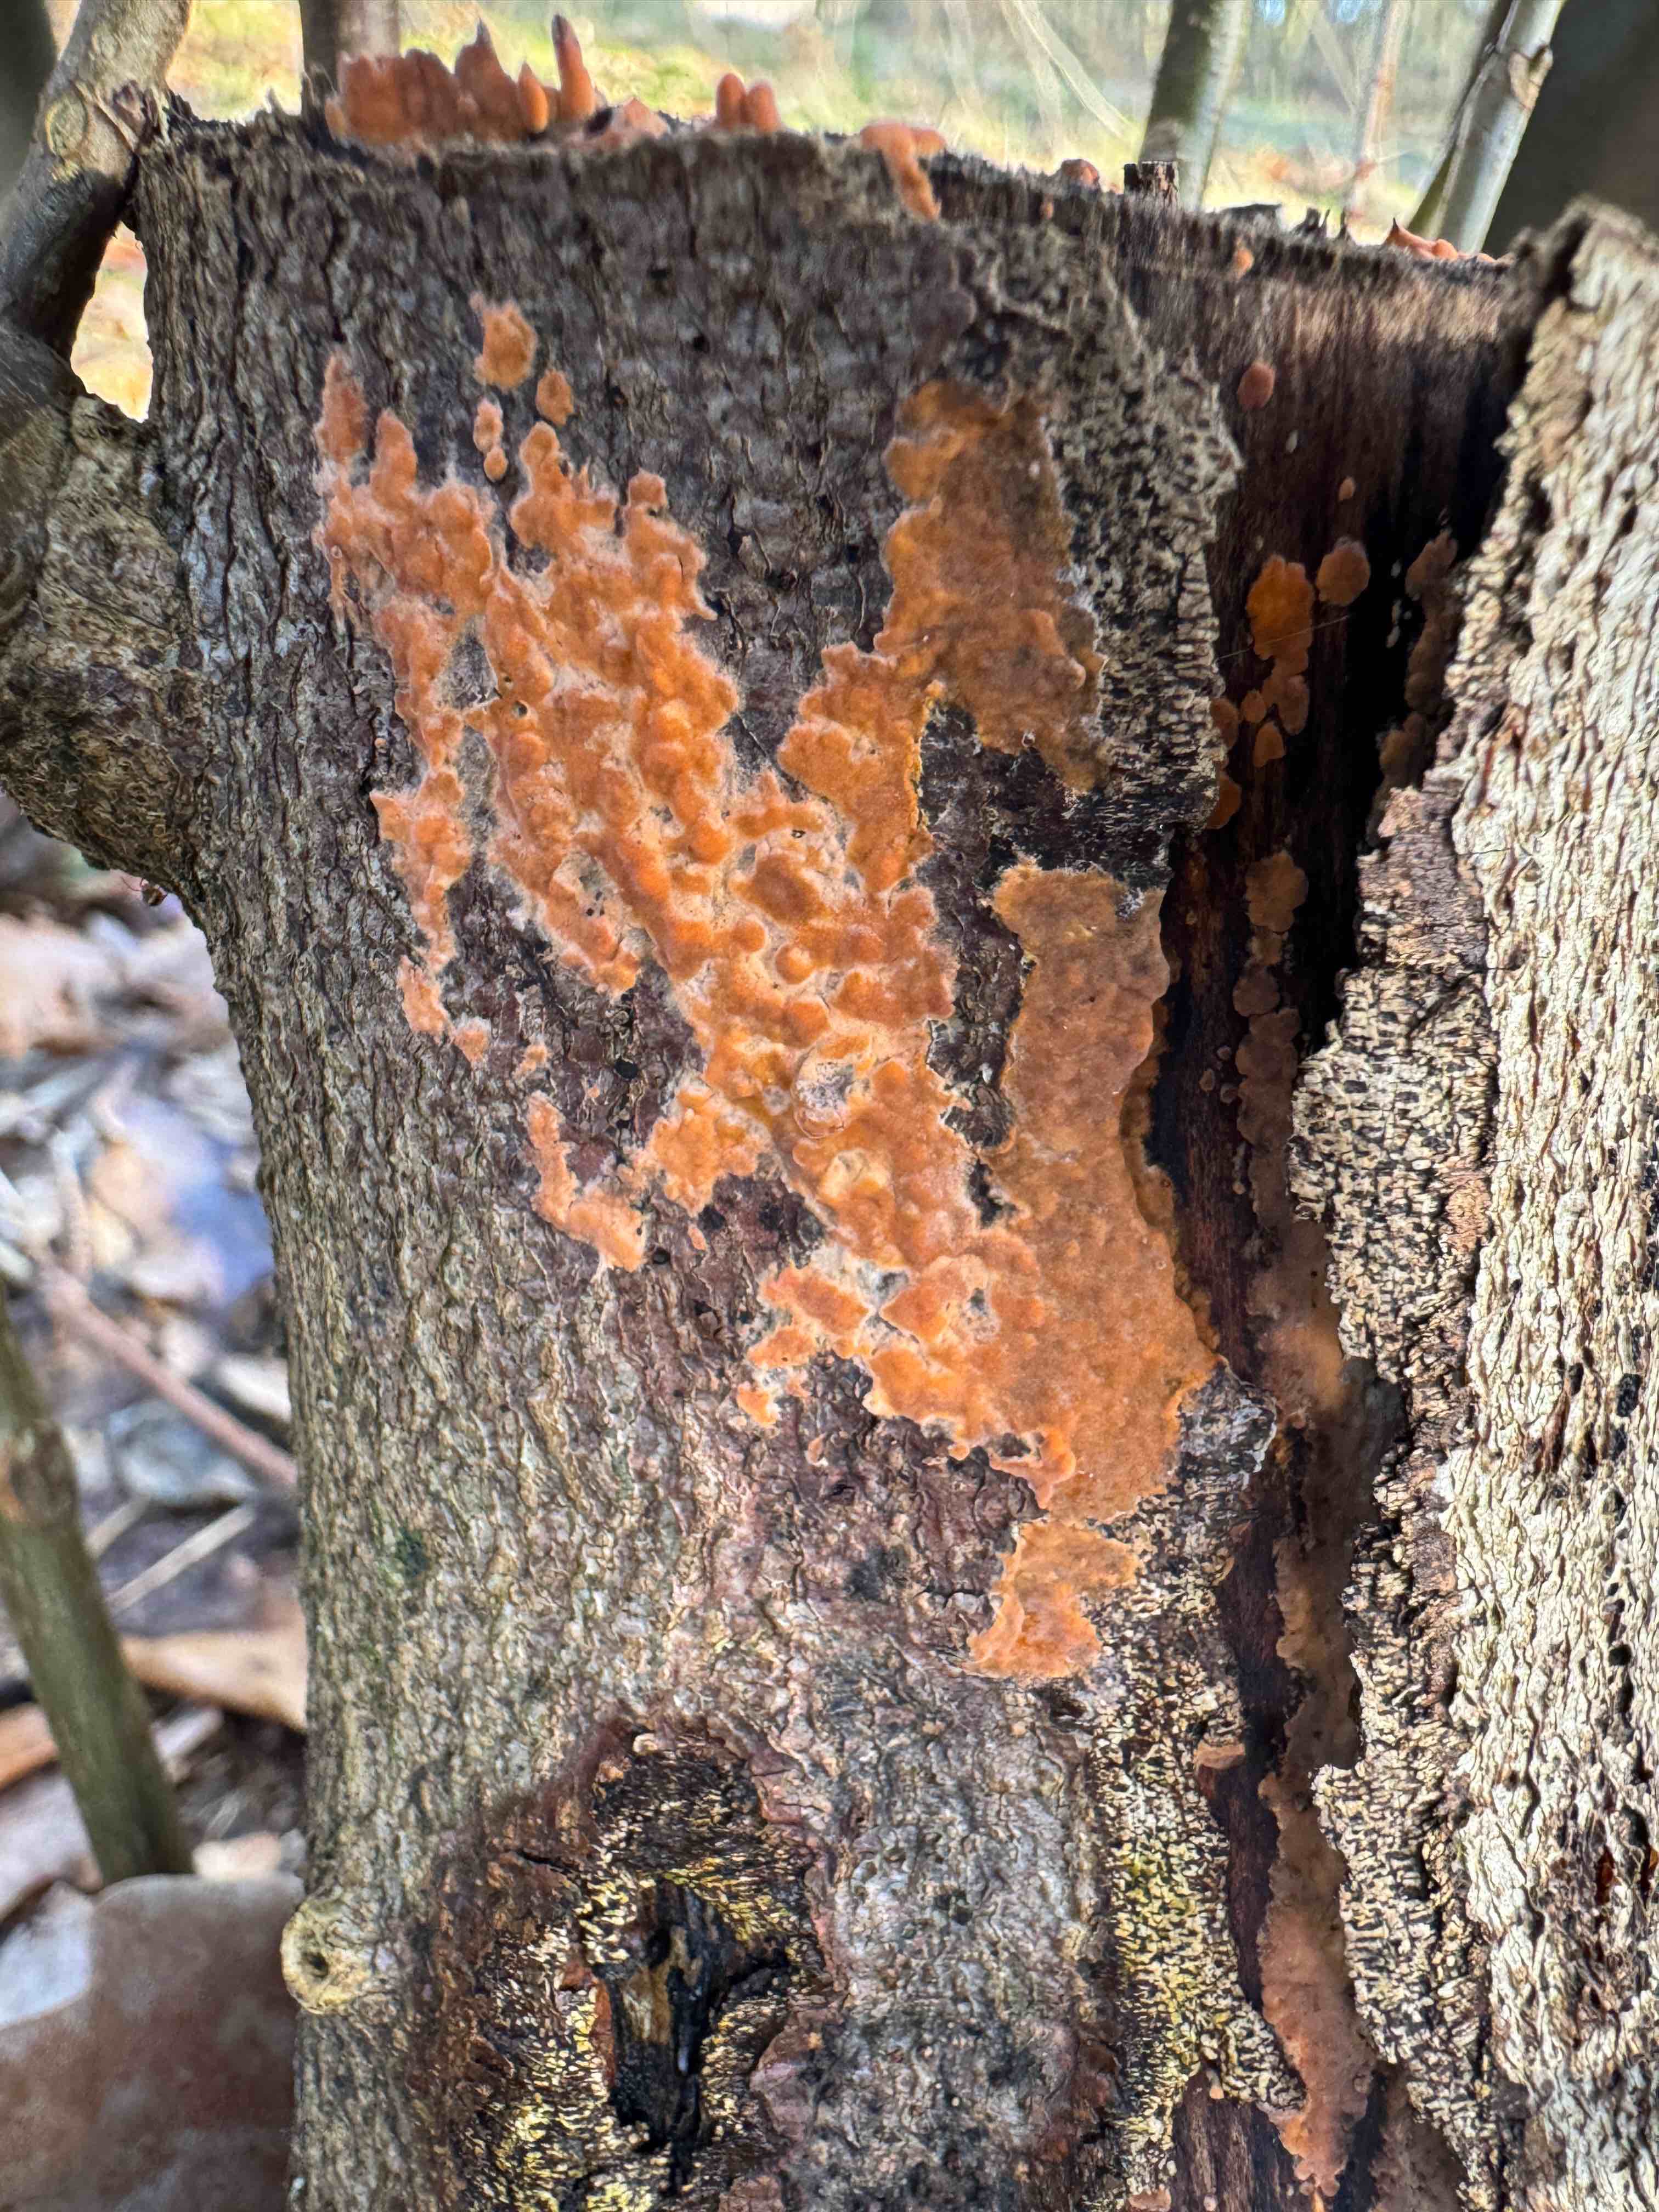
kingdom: Fungi
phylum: Basidiomycota
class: Agaricomycetes
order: Russulales
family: Peniophoraceae
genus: Peniophora
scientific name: Peniophora incarnata
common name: laksefarvet voksskind
